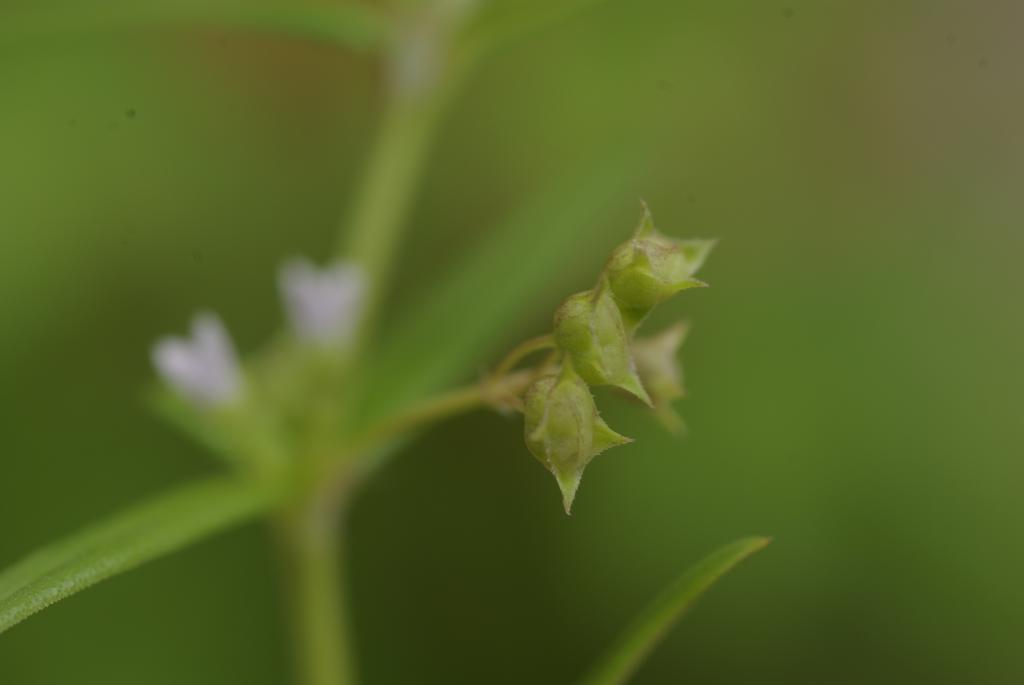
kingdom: Plantae
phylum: Tracheophyta
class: Magnoliopsida
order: Gentianales
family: Rubiaceae
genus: Oldenlandia
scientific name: Oldenlandia corymbosa
